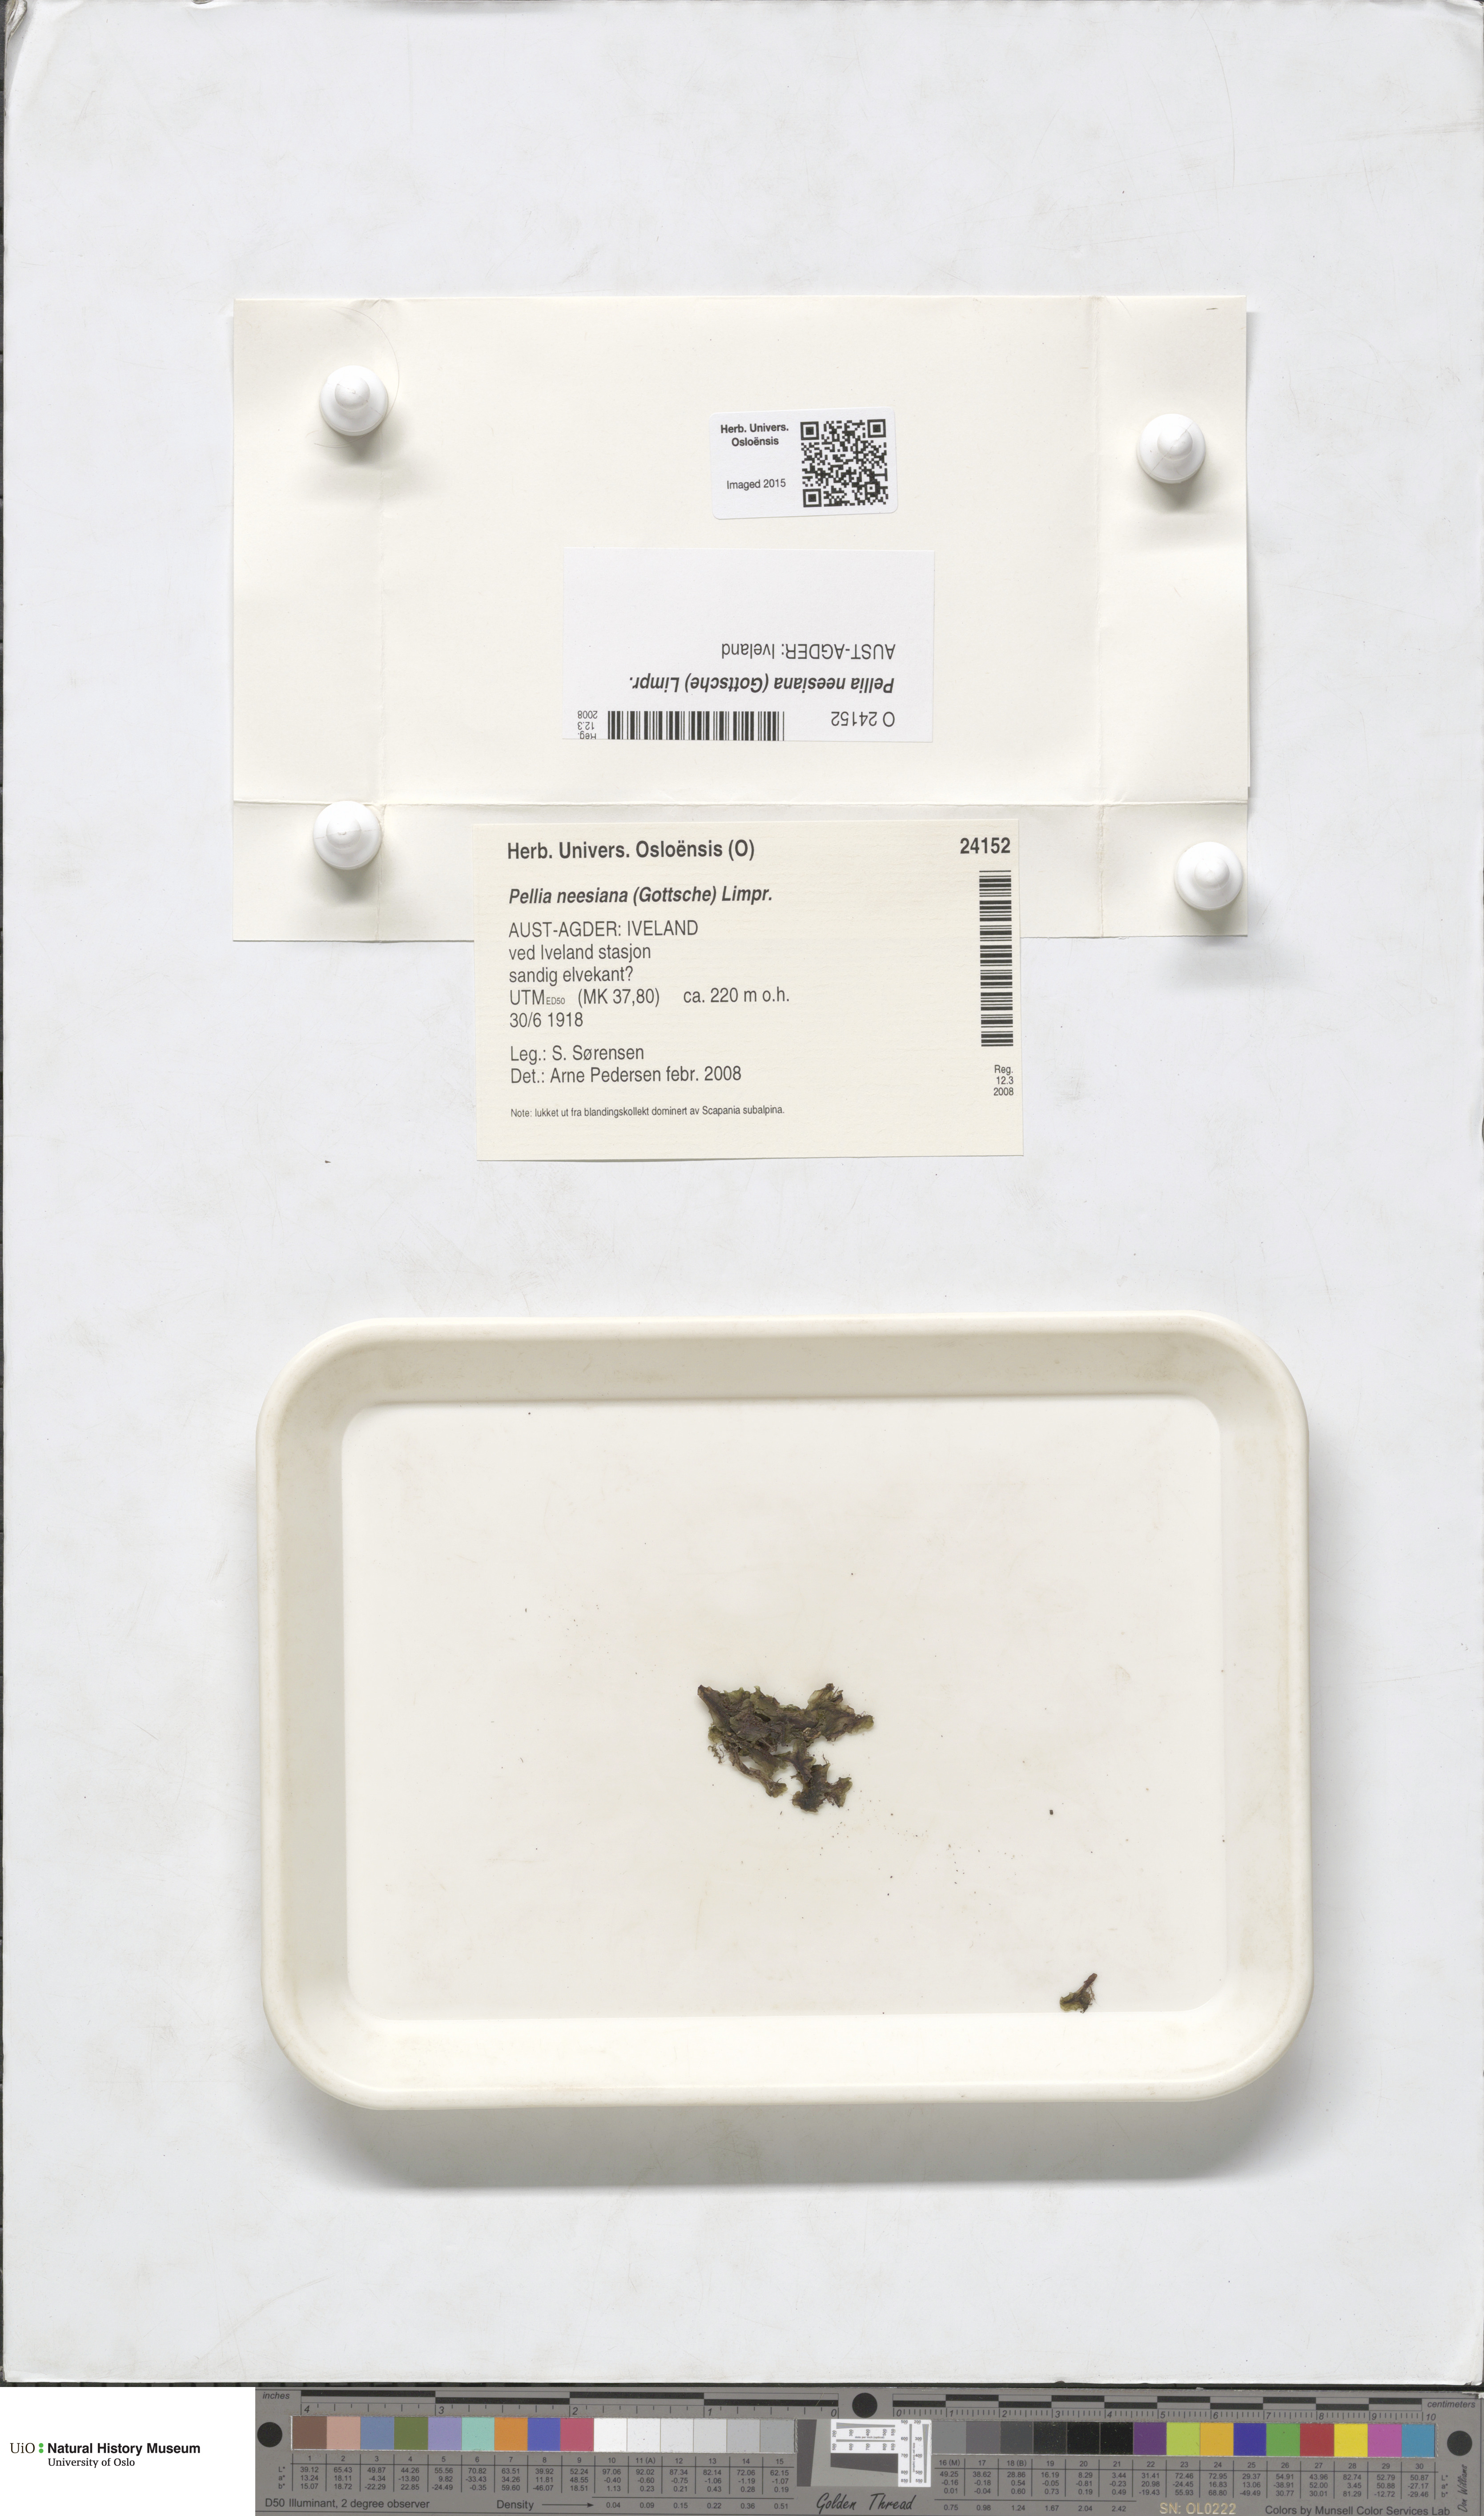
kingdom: Plantae
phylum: Marchantiophyta
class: Jungermanniopsida
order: Pelliales
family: Pelliaceae
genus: Pellia
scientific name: Pellia neesiana
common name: Nees  pellia
